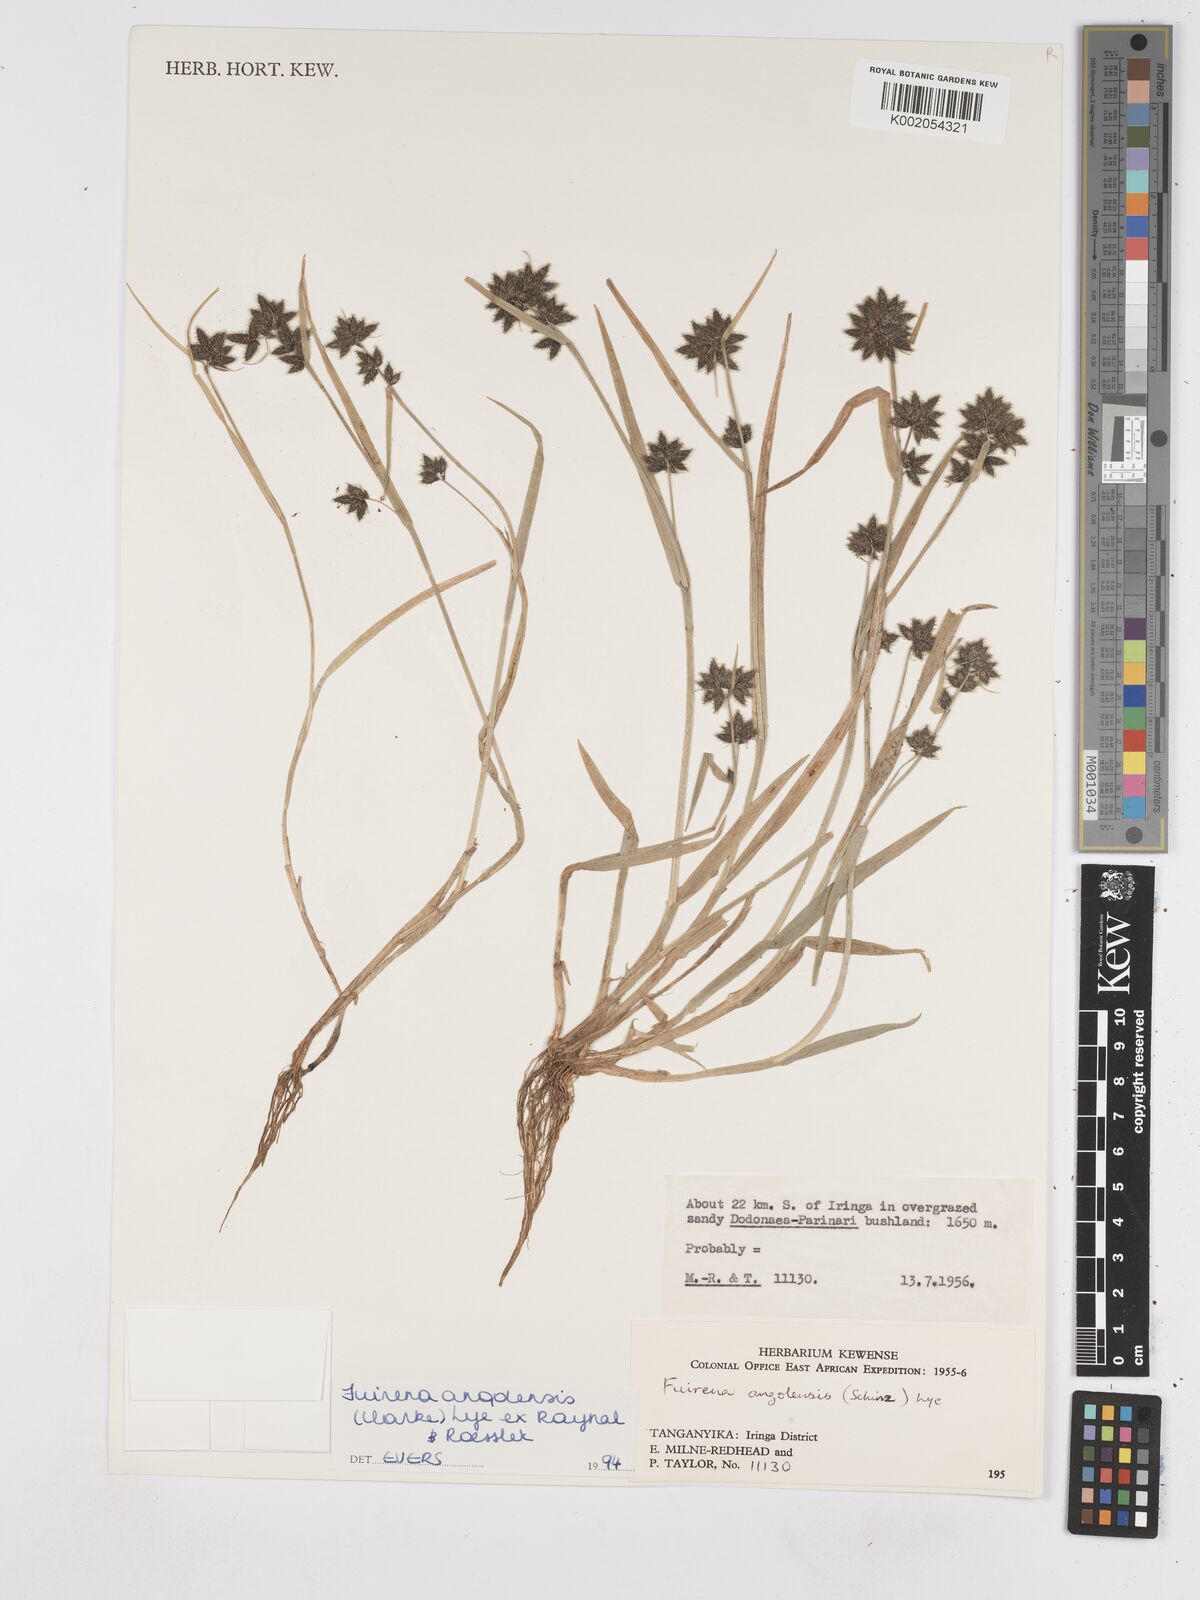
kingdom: Plantae
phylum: Tracheophyta
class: Liliopsida
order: Poales
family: Cyperaceae
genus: Fuirena
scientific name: Fuirena angolensis
